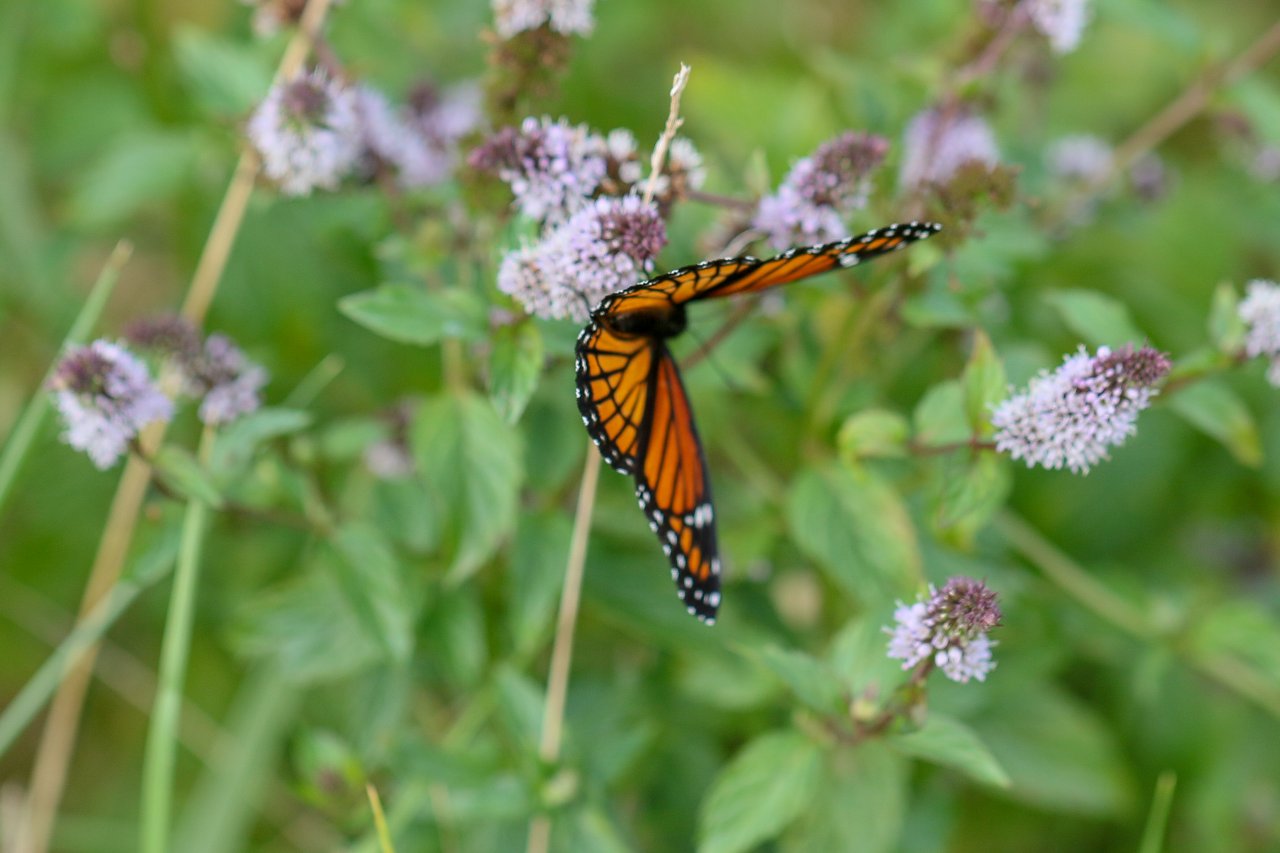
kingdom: Animalia
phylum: Arthropoda
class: Insecta
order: Lepidoptera
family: Nymphalidae
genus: Limenitis
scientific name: Limenitis archippus
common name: Viceroy
